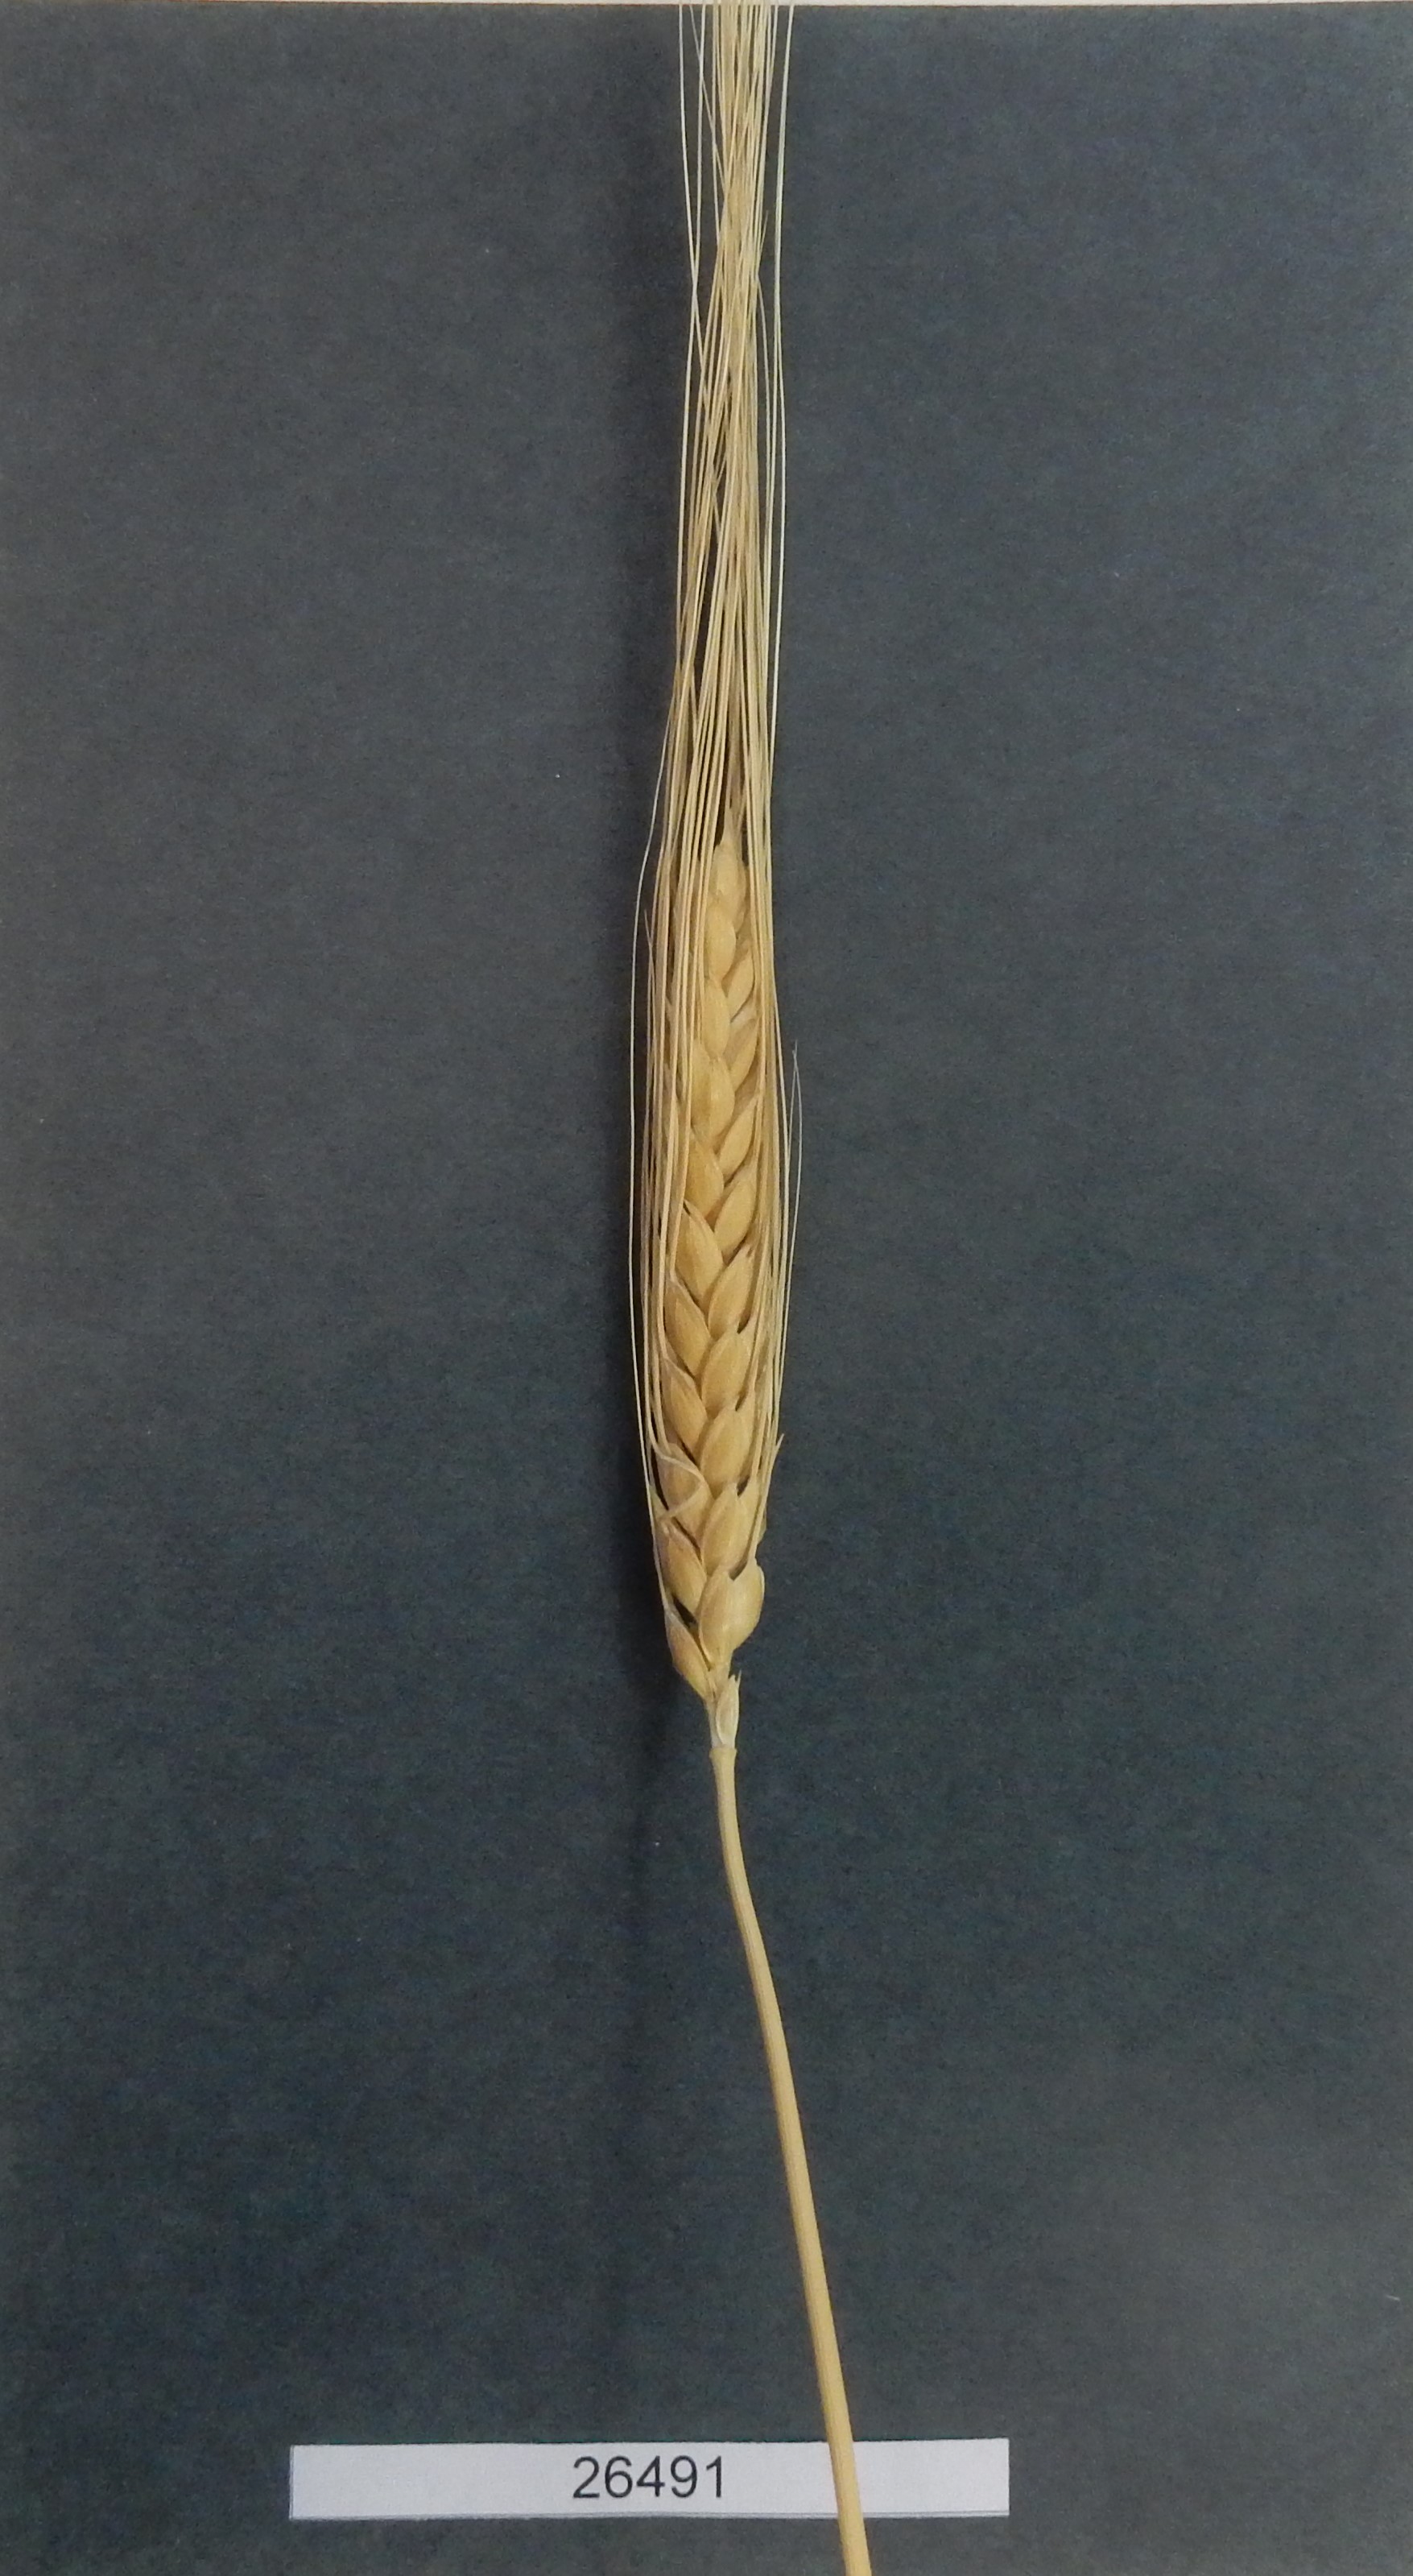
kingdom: Plantae
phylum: Tracheophyta
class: Liliopsida
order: Poales
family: Poaceae
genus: Triticum
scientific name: Triticum turgidum
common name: Wheat
